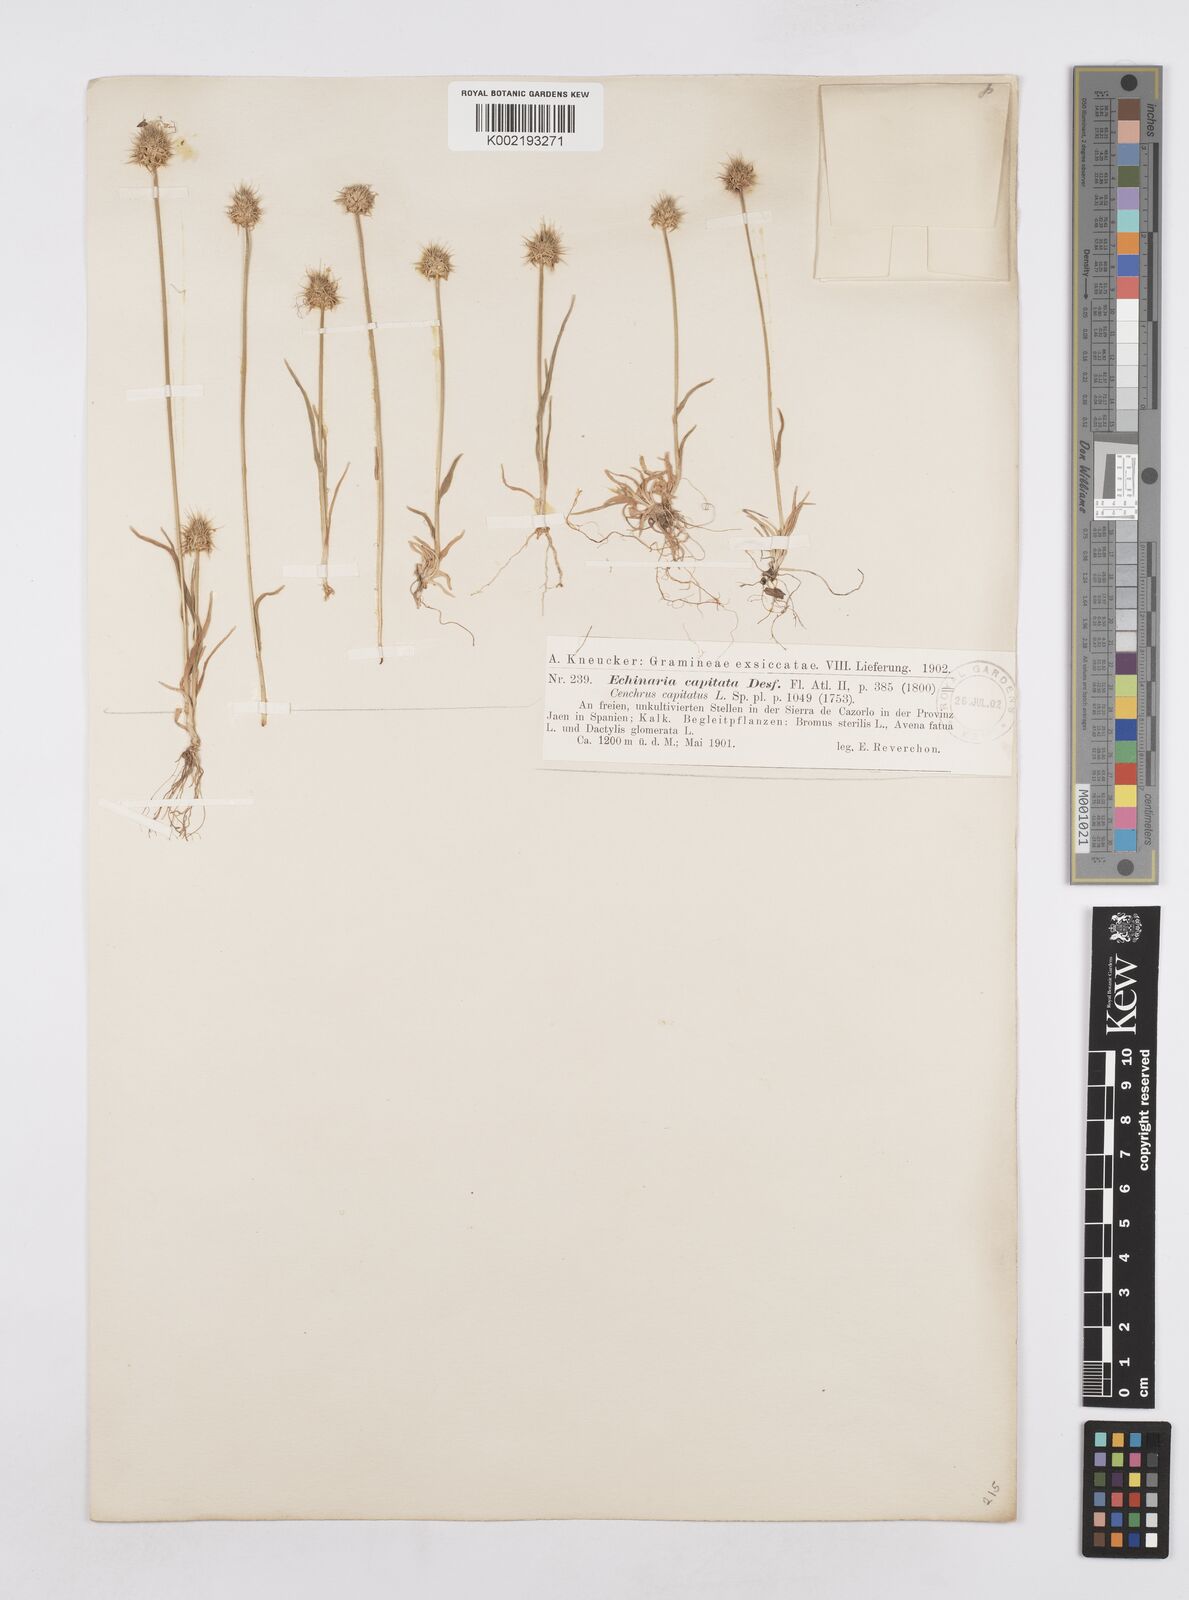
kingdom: Plantae
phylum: Tracheophyta
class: Liliopsida
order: Poales
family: Poaceae
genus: Echinaria
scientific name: Echinaria capitata
